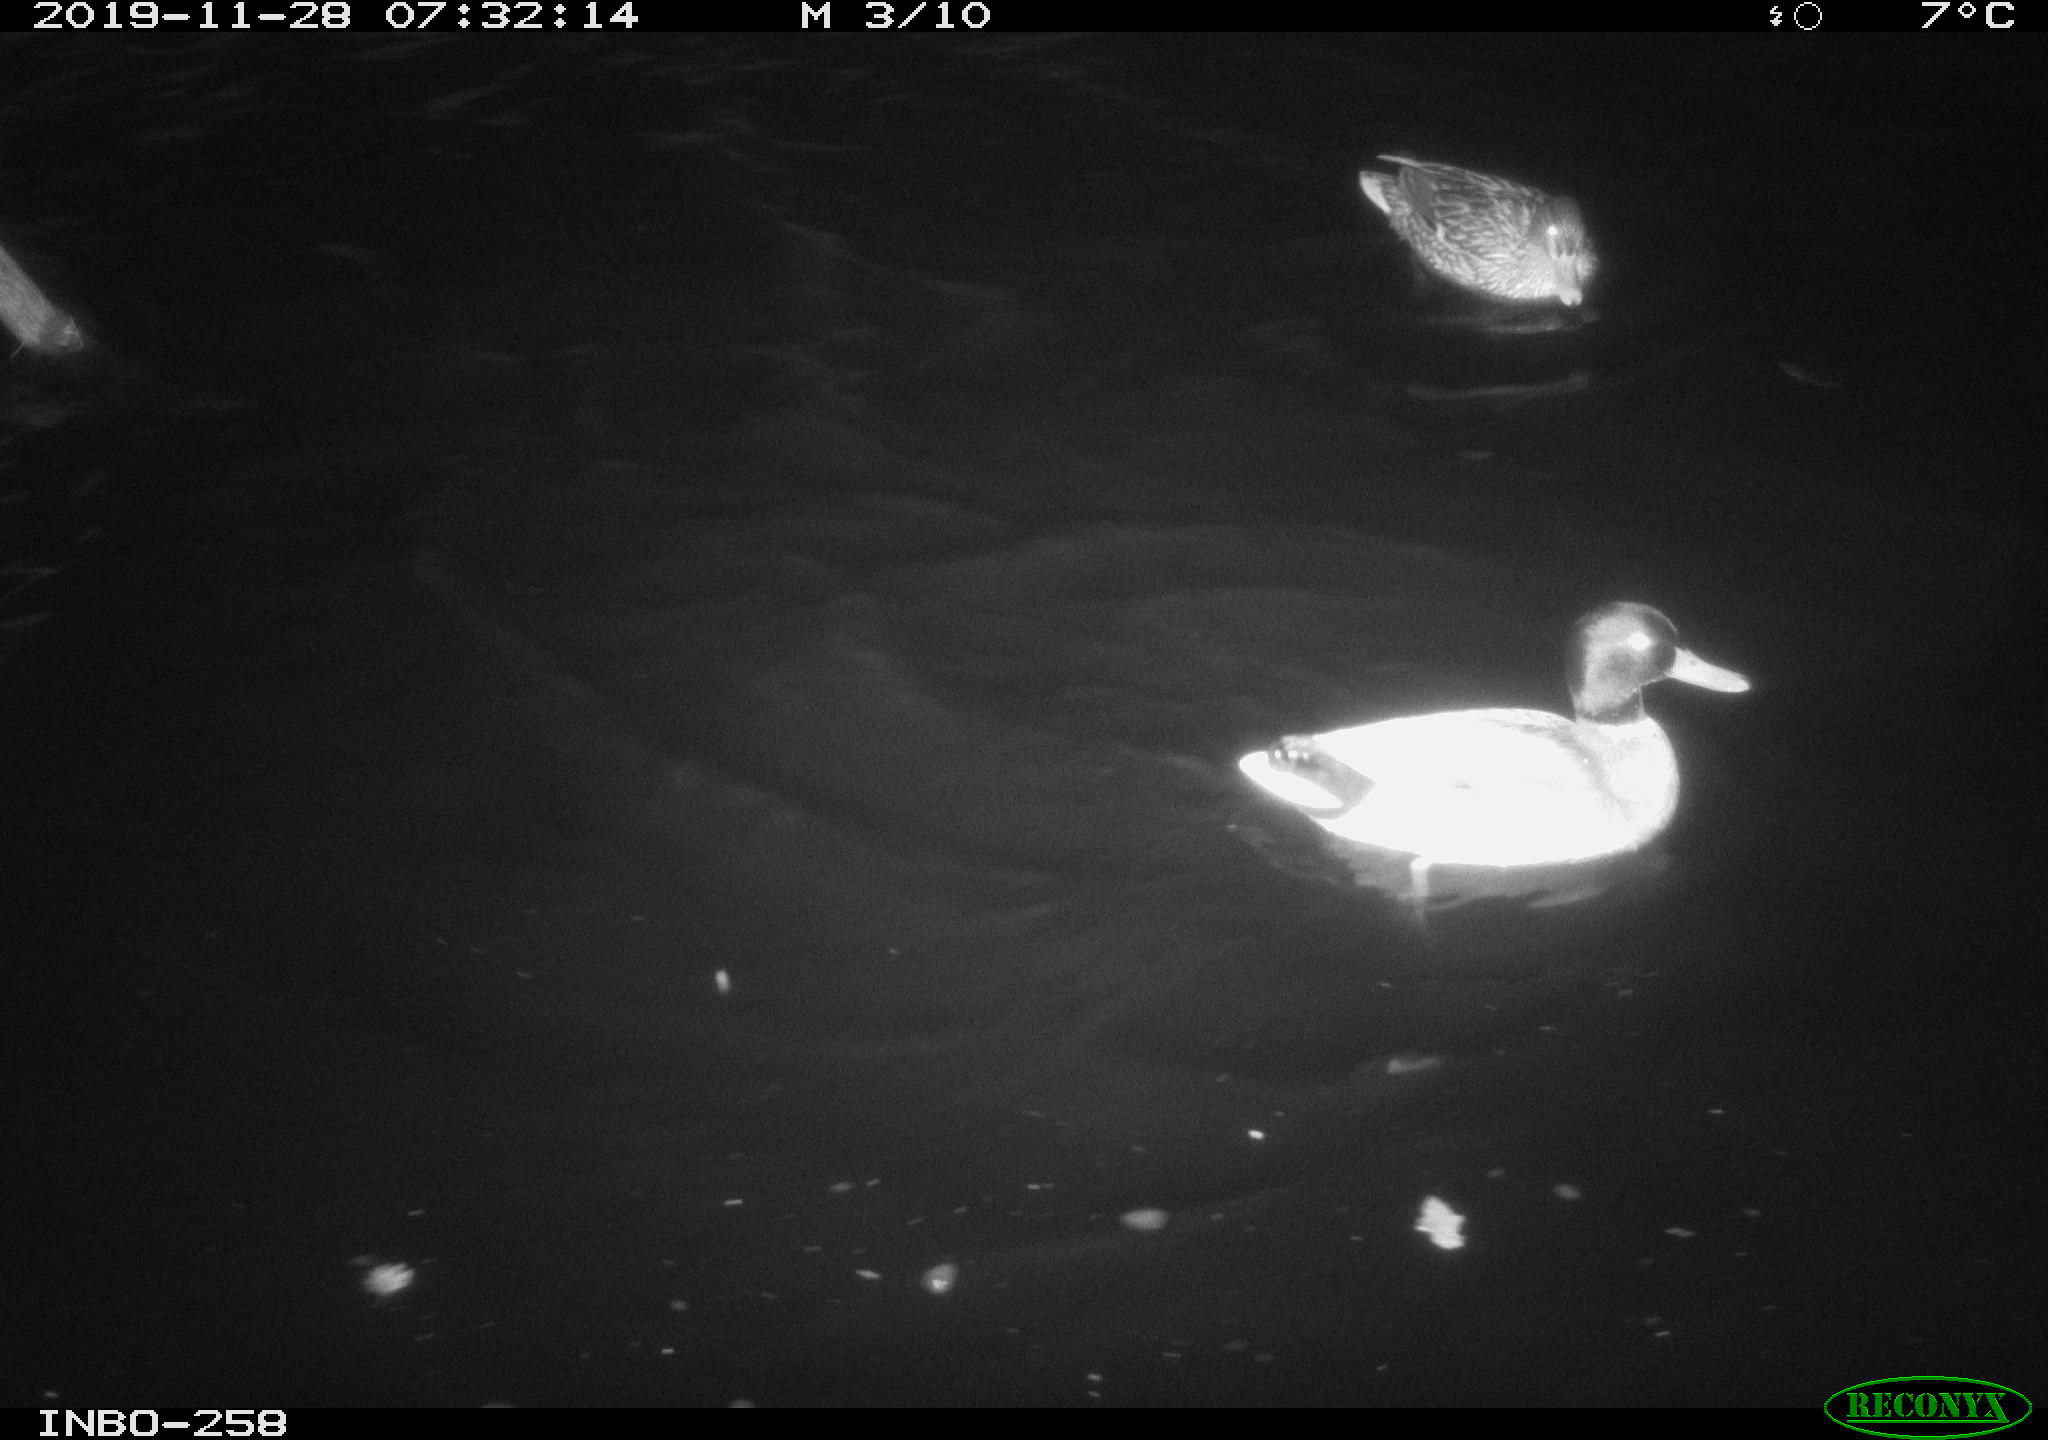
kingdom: Animalia
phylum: Chordata
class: Aves
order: Anseriformes
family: Anatidae
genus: Anas
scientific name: Anas platyrhynchos
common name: Mallard
